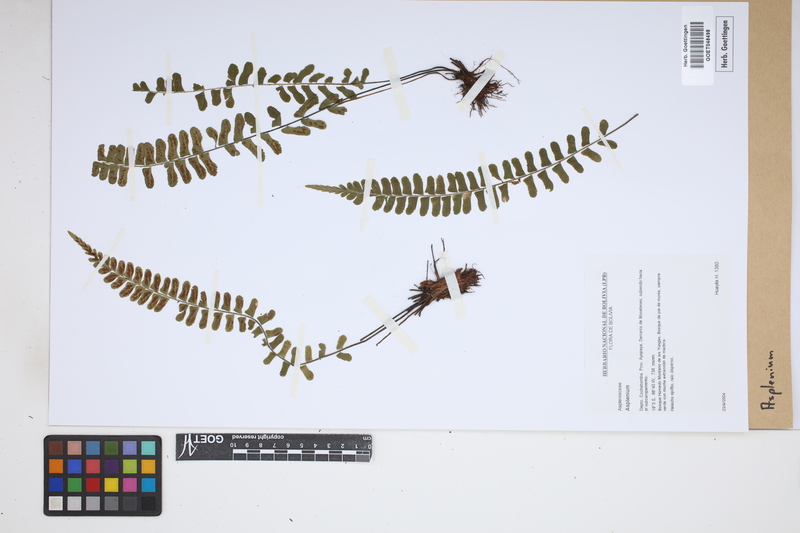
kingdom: Plantae
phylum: Tracheophyta
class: Polypodiopsida
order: Polypodiales
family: Aspleniaceae
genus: Asplenium
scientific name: Asplenium
